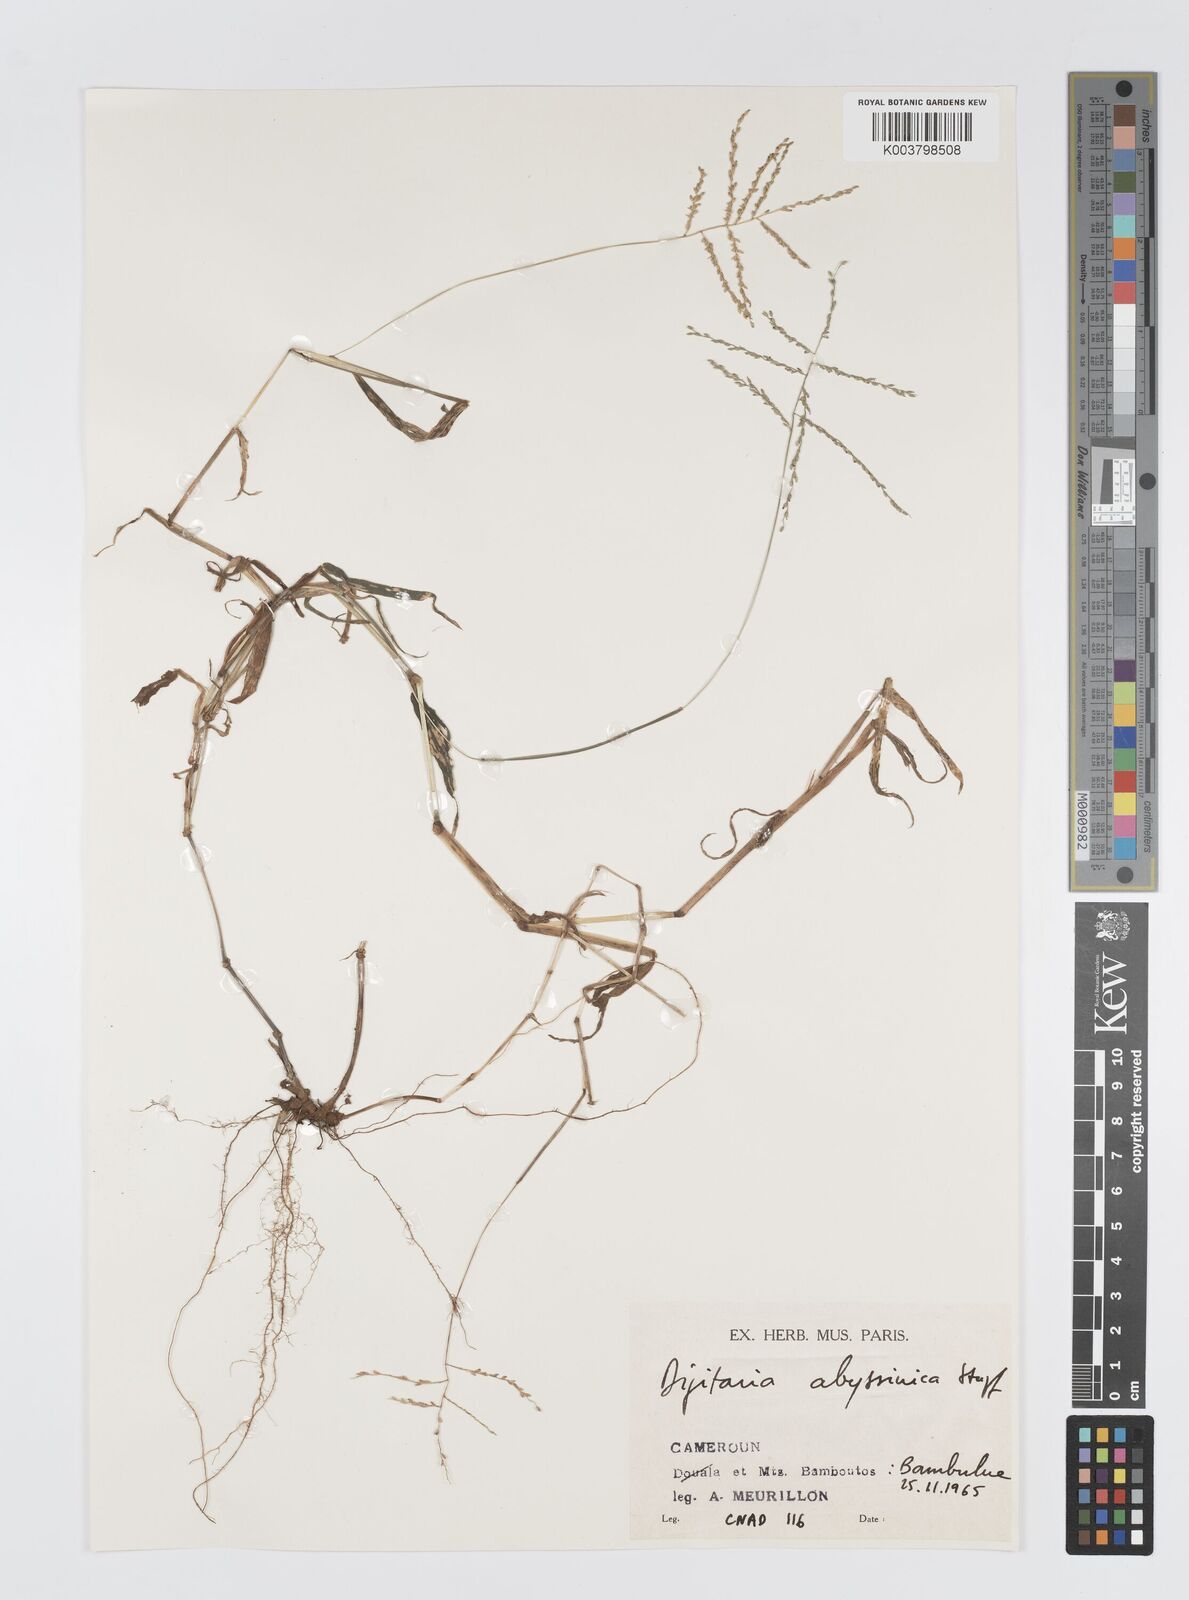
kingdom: Plantae
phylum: Tracheophyta
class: Liliopsida
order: Poales
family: Poaceae
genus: Digitaria
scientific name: Digitaria abyssinica
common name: African couchgrass
